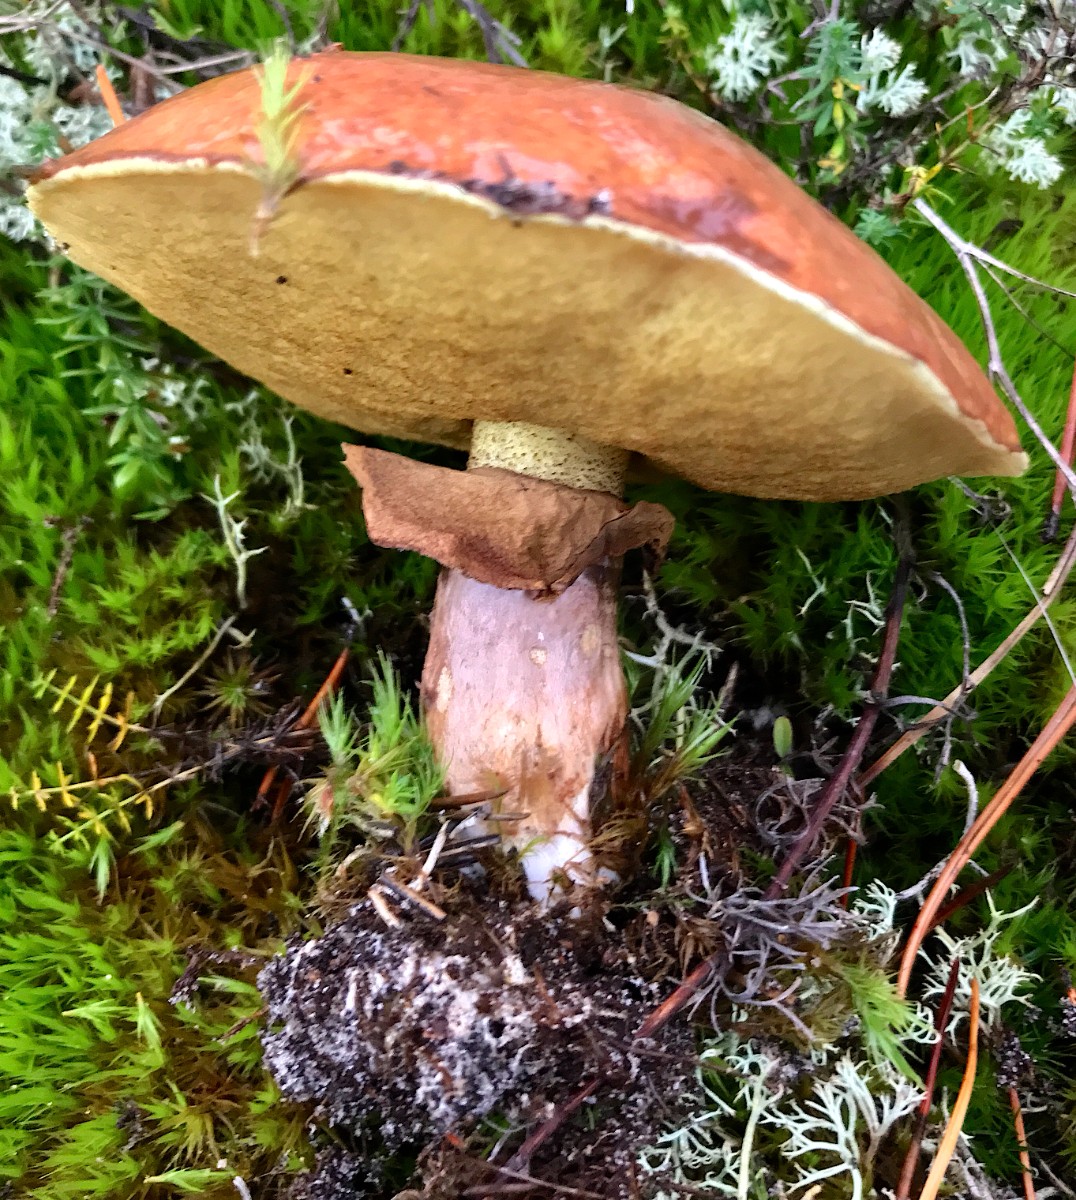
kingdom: Fungi
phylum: Basidiomycota
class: Agaricomycetes
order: Boletales
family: Suillaceae
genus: Suillus
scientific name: Suillus luteus
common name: brungul slimrørhat
